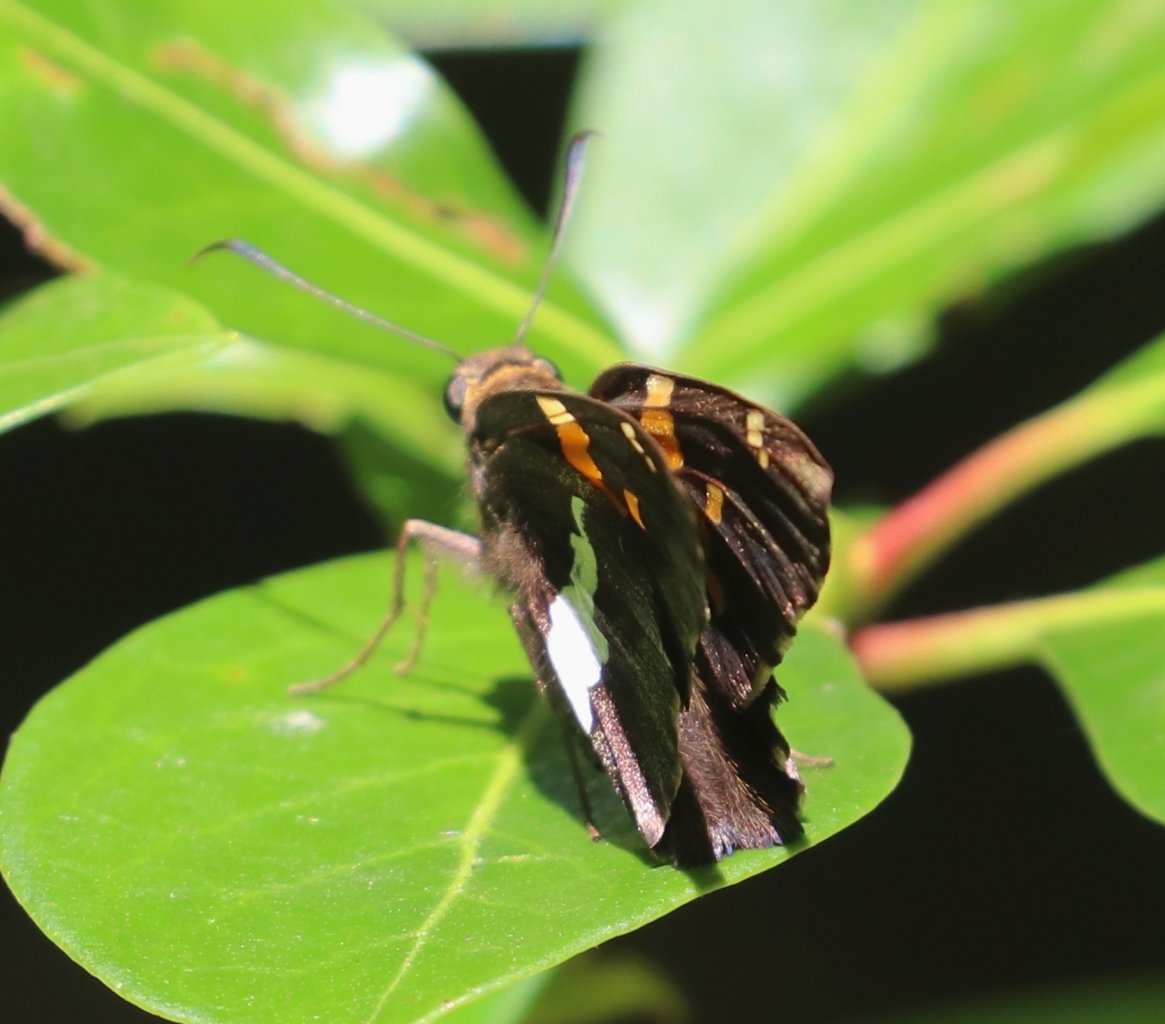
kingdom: Animalia
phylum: Arthropoda
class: Insecta
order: Lepidoptera
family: Hesperiidae
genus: Epargyreus
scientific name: Epargyreus clarus
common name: Silver-spotted Skipper
